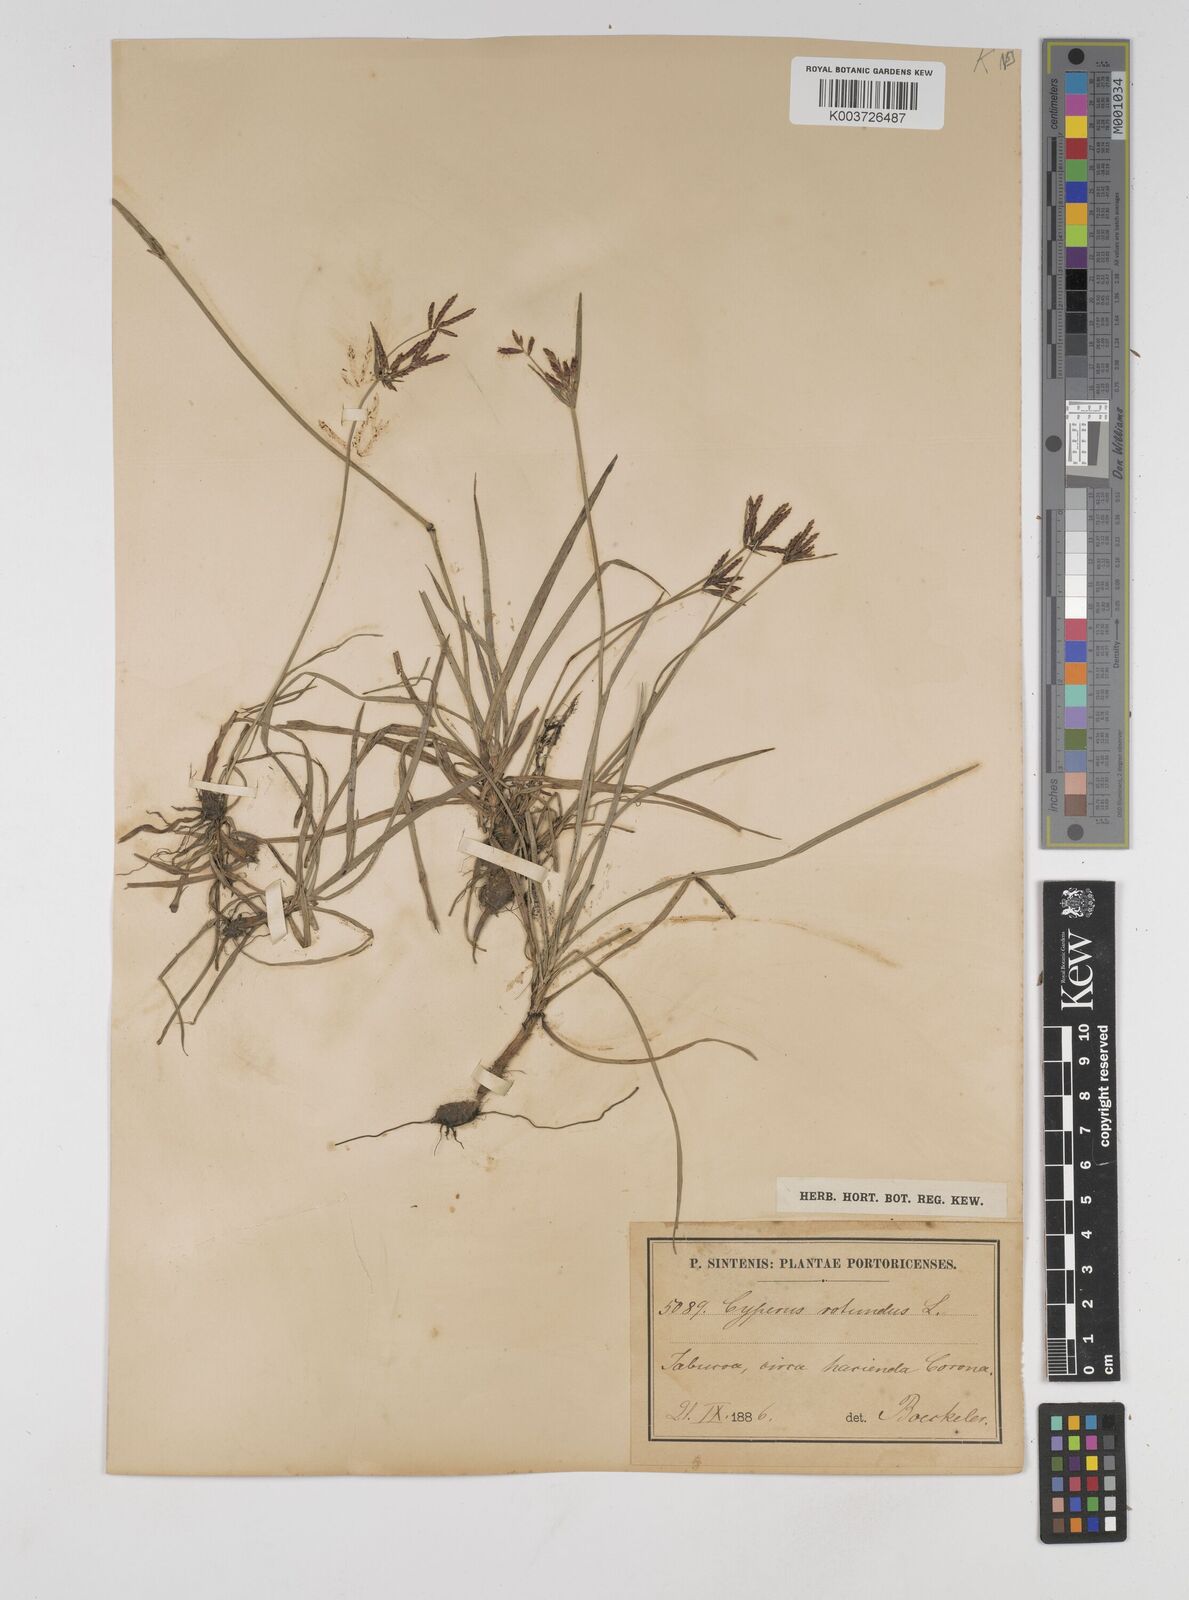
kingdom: Plantae
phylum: Tracheophyta
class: Liliopsida
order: Poales
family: Cyperaceae
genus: Cyperus
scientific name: Cyperus rotundus
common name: Nutgrass
